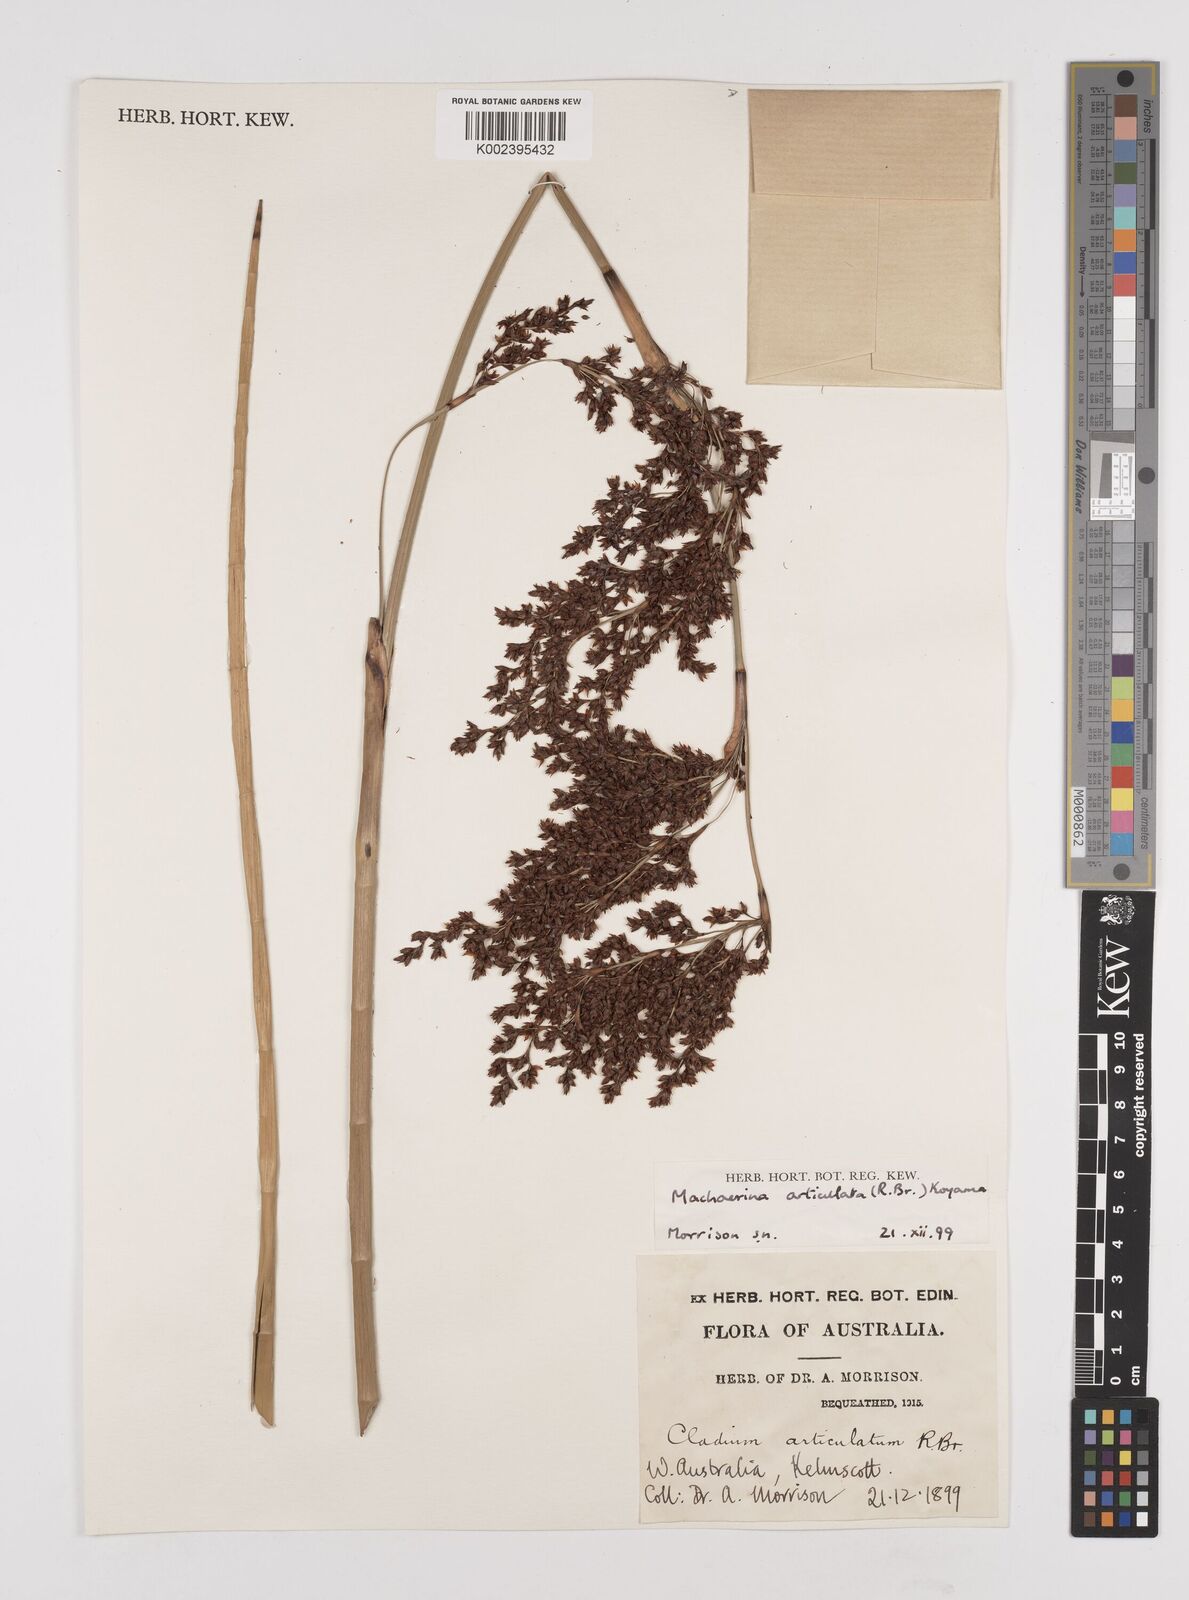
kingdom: Plantae
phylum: Tracheophyta
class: Liliopsida
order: Poales
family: Cyperaceae
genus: Machaerina
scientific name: Machaerina articulata
